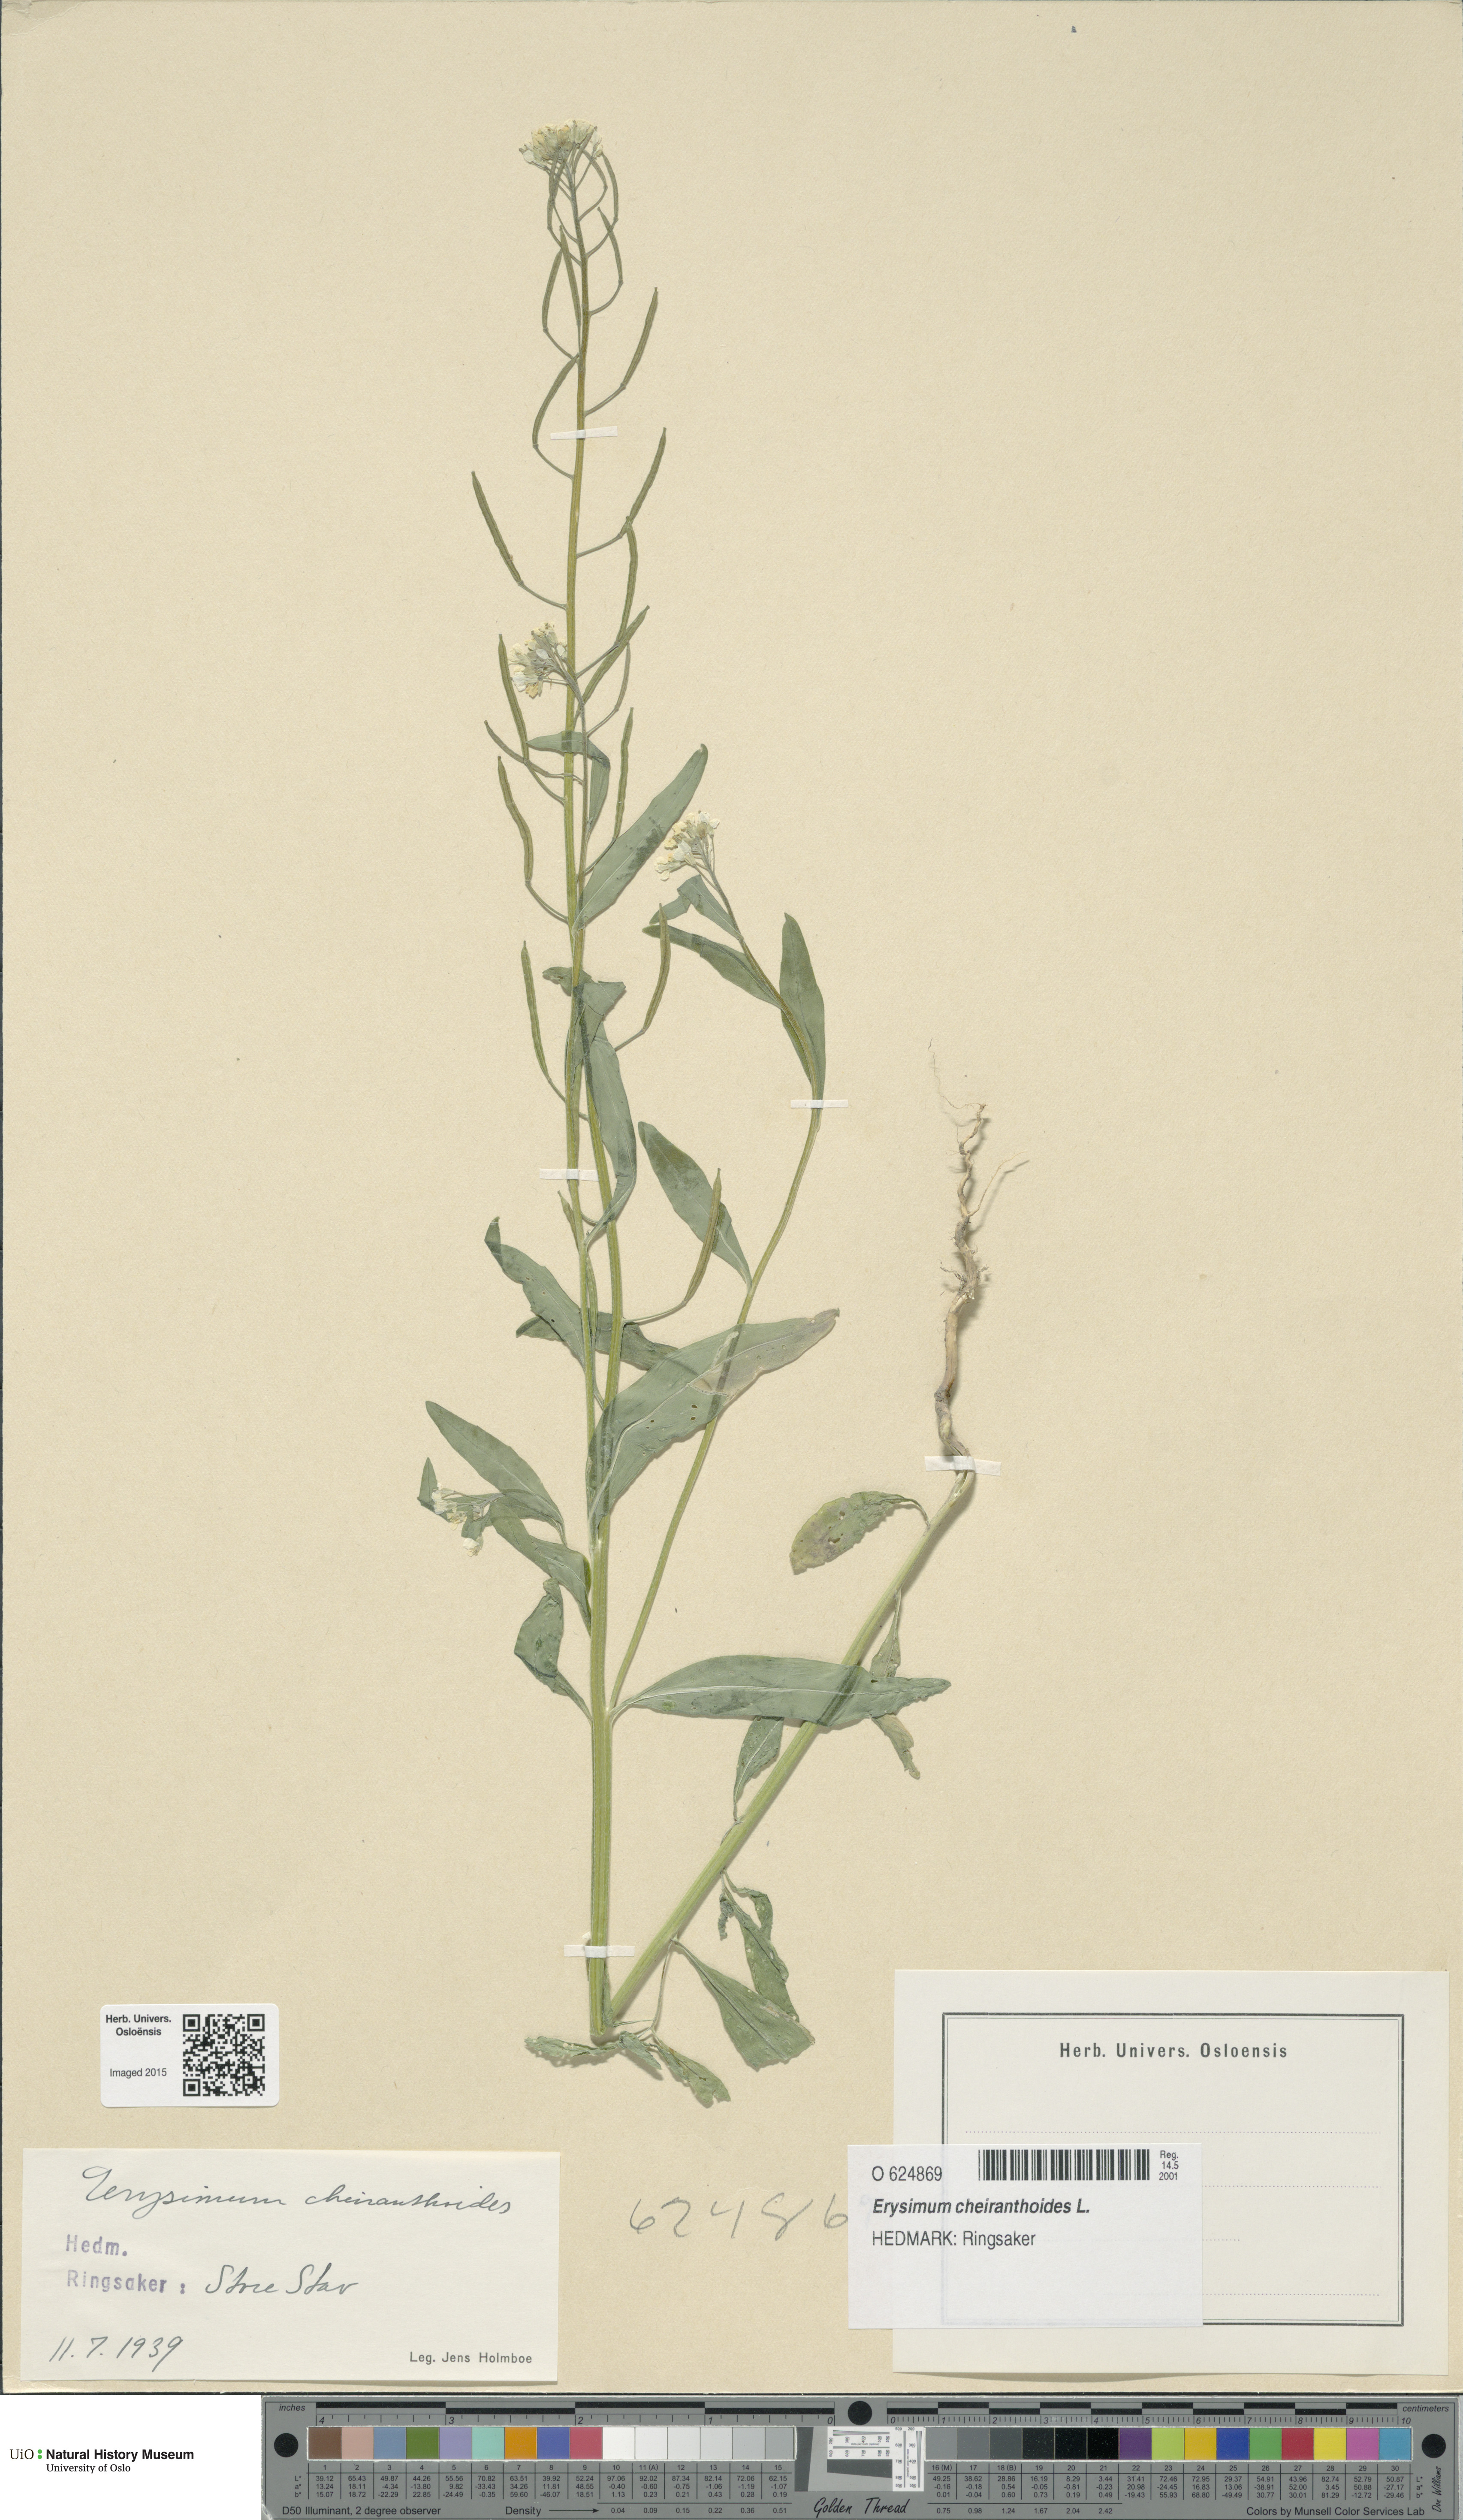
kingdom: Plantae
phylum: Tracheophyta
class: Magnoliopsida
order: Brassicales
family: Brassicaceae
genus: Erysimum
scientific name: Erysimum cheiranthoides
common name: Treacle mustard
